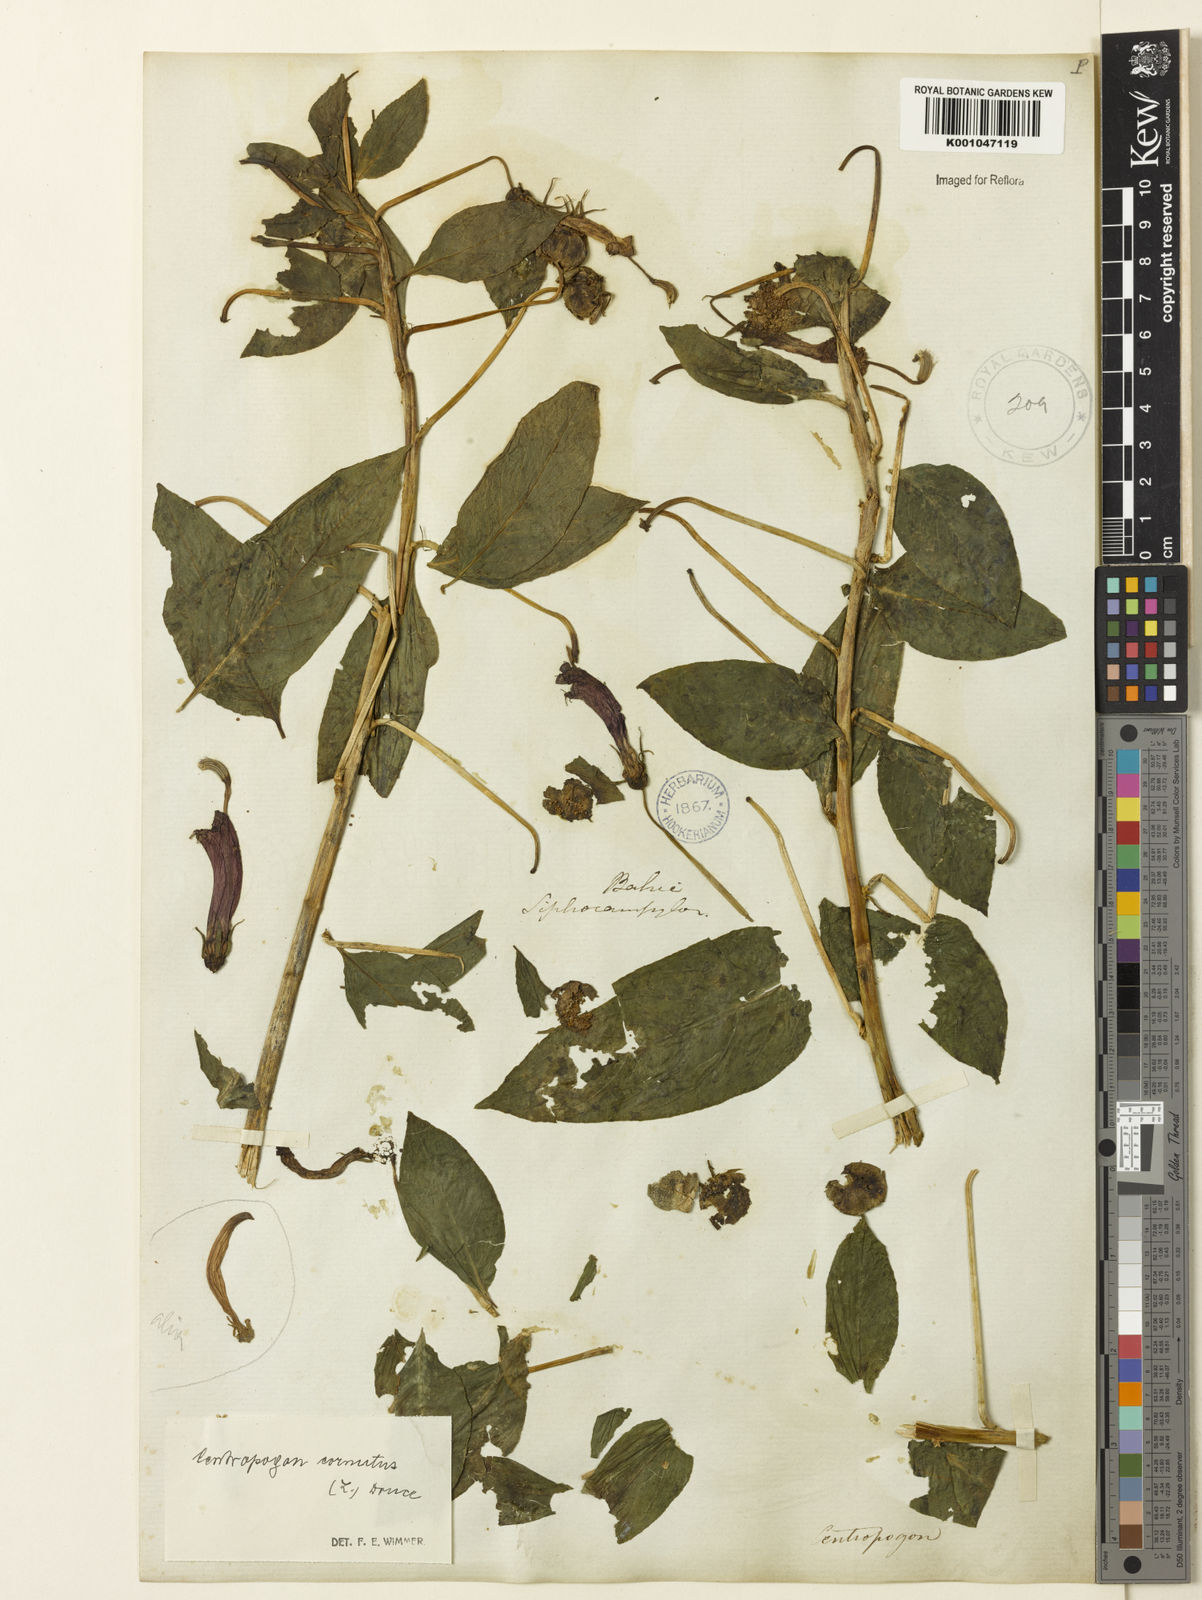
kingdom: Plantae
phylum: Tracheophyta
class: Magnoliopsida
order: Asterales
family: Campanulaceae
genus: Centropogon
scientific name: Centropogon cornutus
